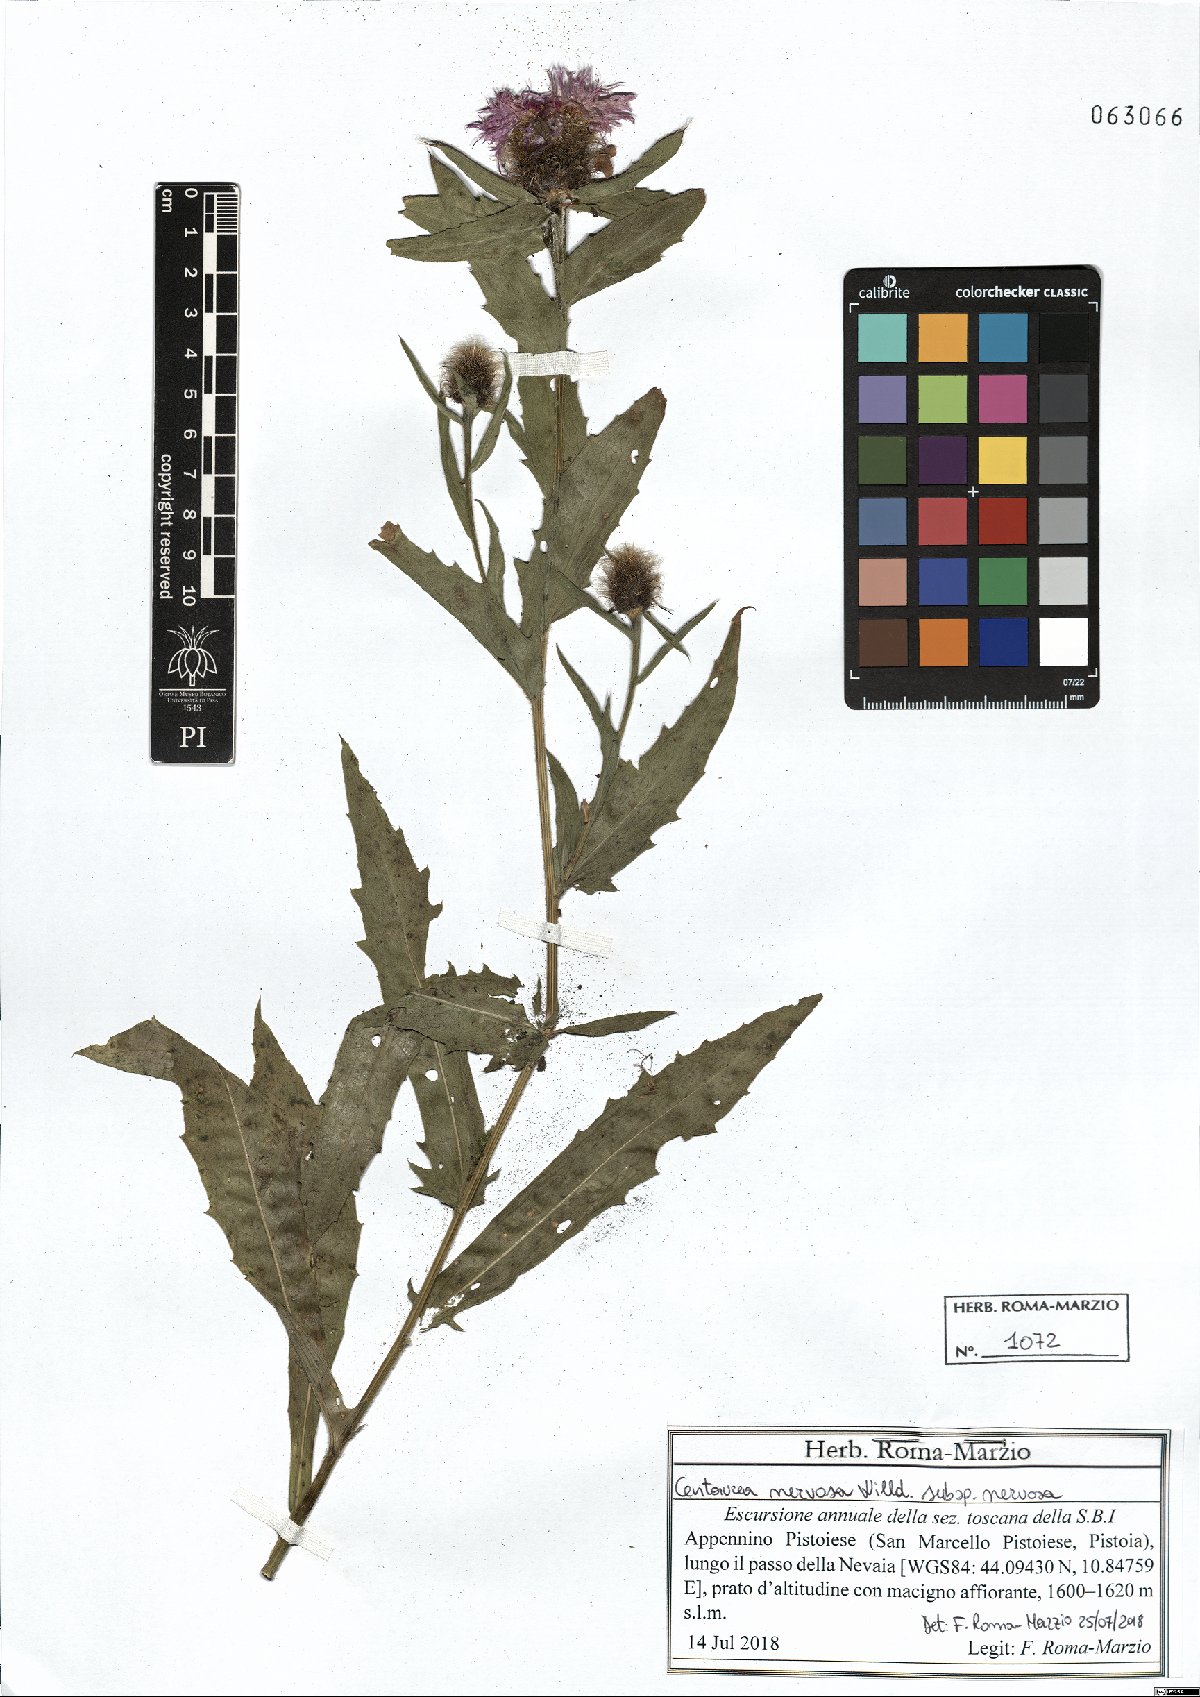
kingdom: Plantae
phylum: Tracheophyta
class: Magnoliopsida
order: Asterales
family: Asteraceae
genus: Centaurea
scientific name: Centaurea nervosa
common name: Singleflower knapweed
